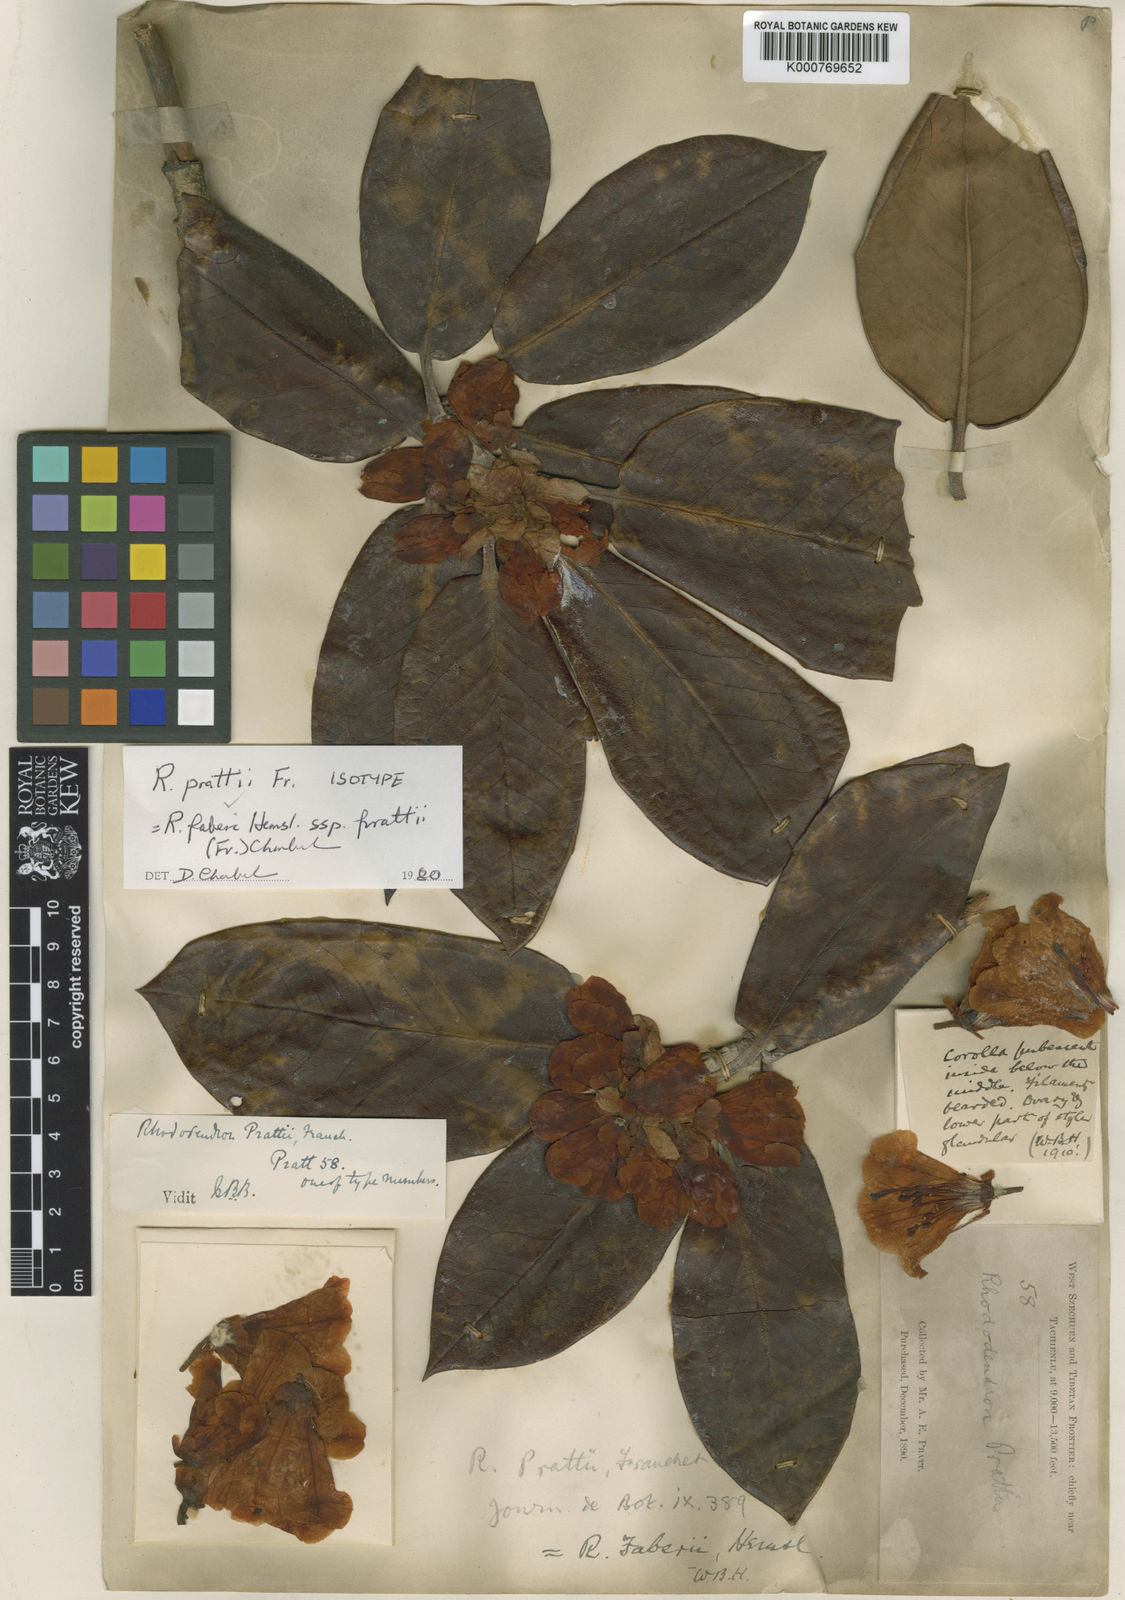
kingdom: Plantae
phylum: Tracheophyta
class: Magnoliopsida
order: Ericales
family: Ericaceae
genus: Rhododendron
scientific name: Rhododendron prattii
